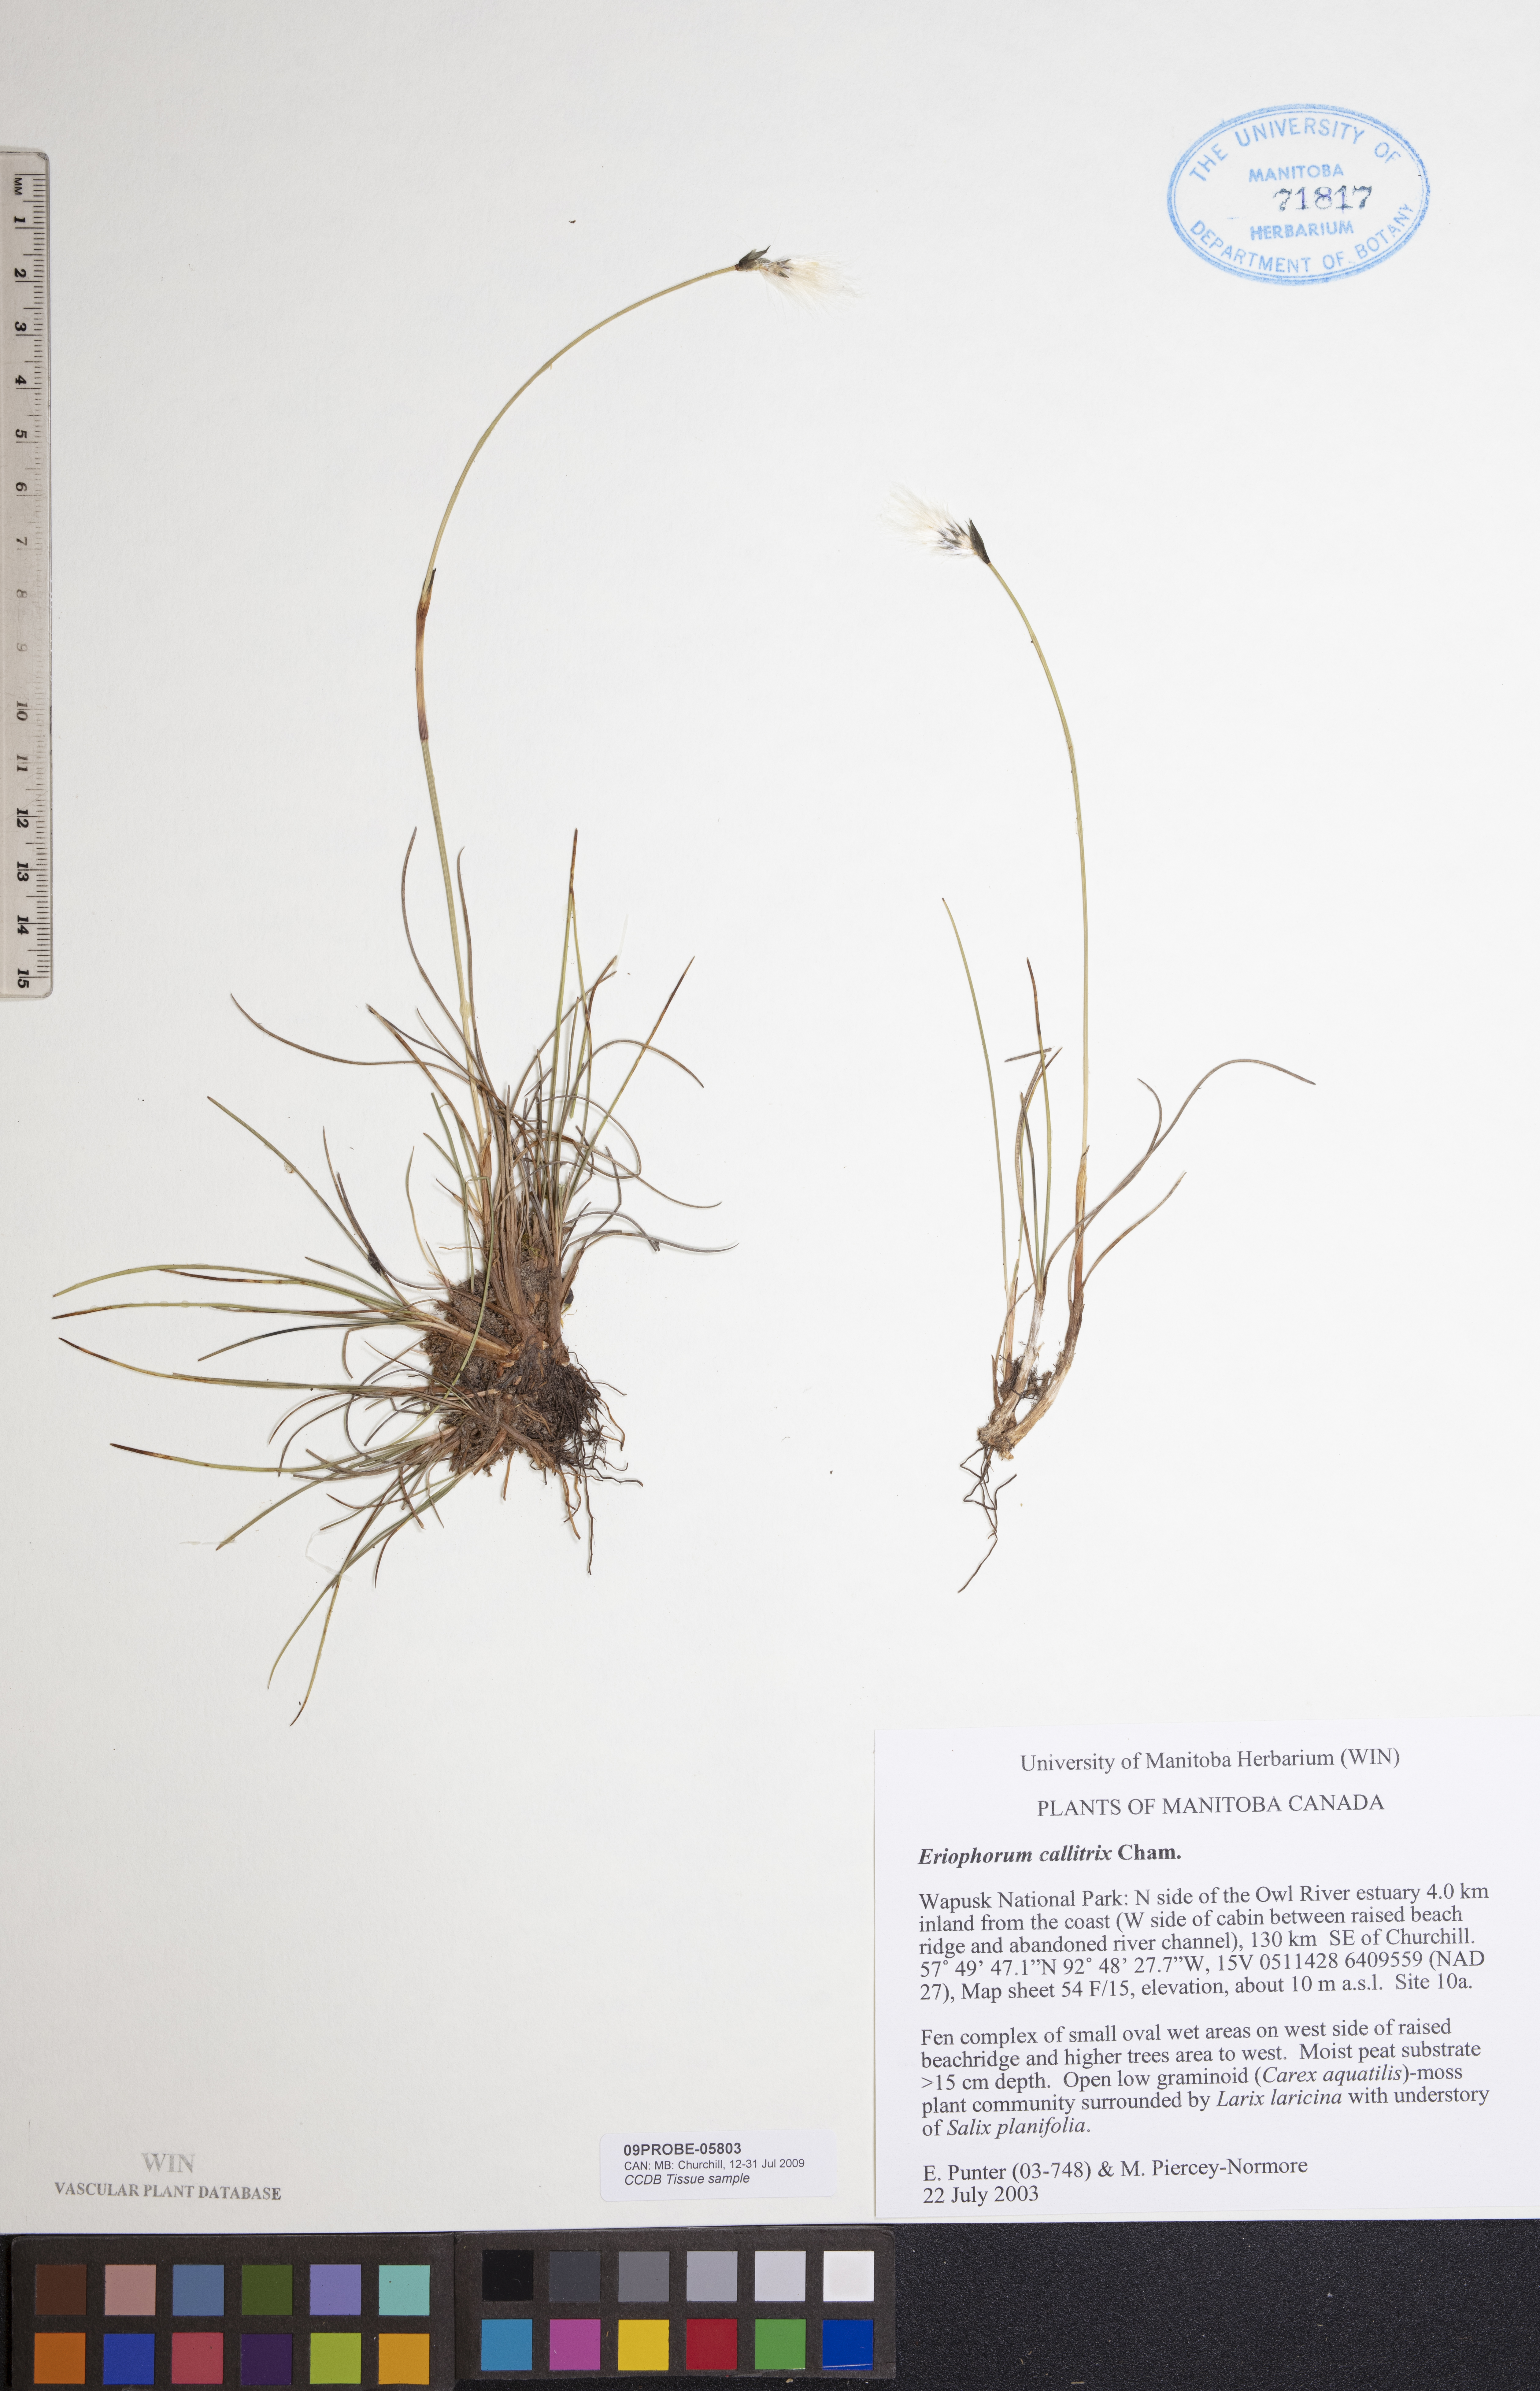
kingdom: Plantae
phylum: Tracheophyta
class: Liliopsida
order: Poales
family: Cyperaceae
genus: Eriophorum
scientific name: Eriophorum callitrix
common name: Arctic cottongrass
